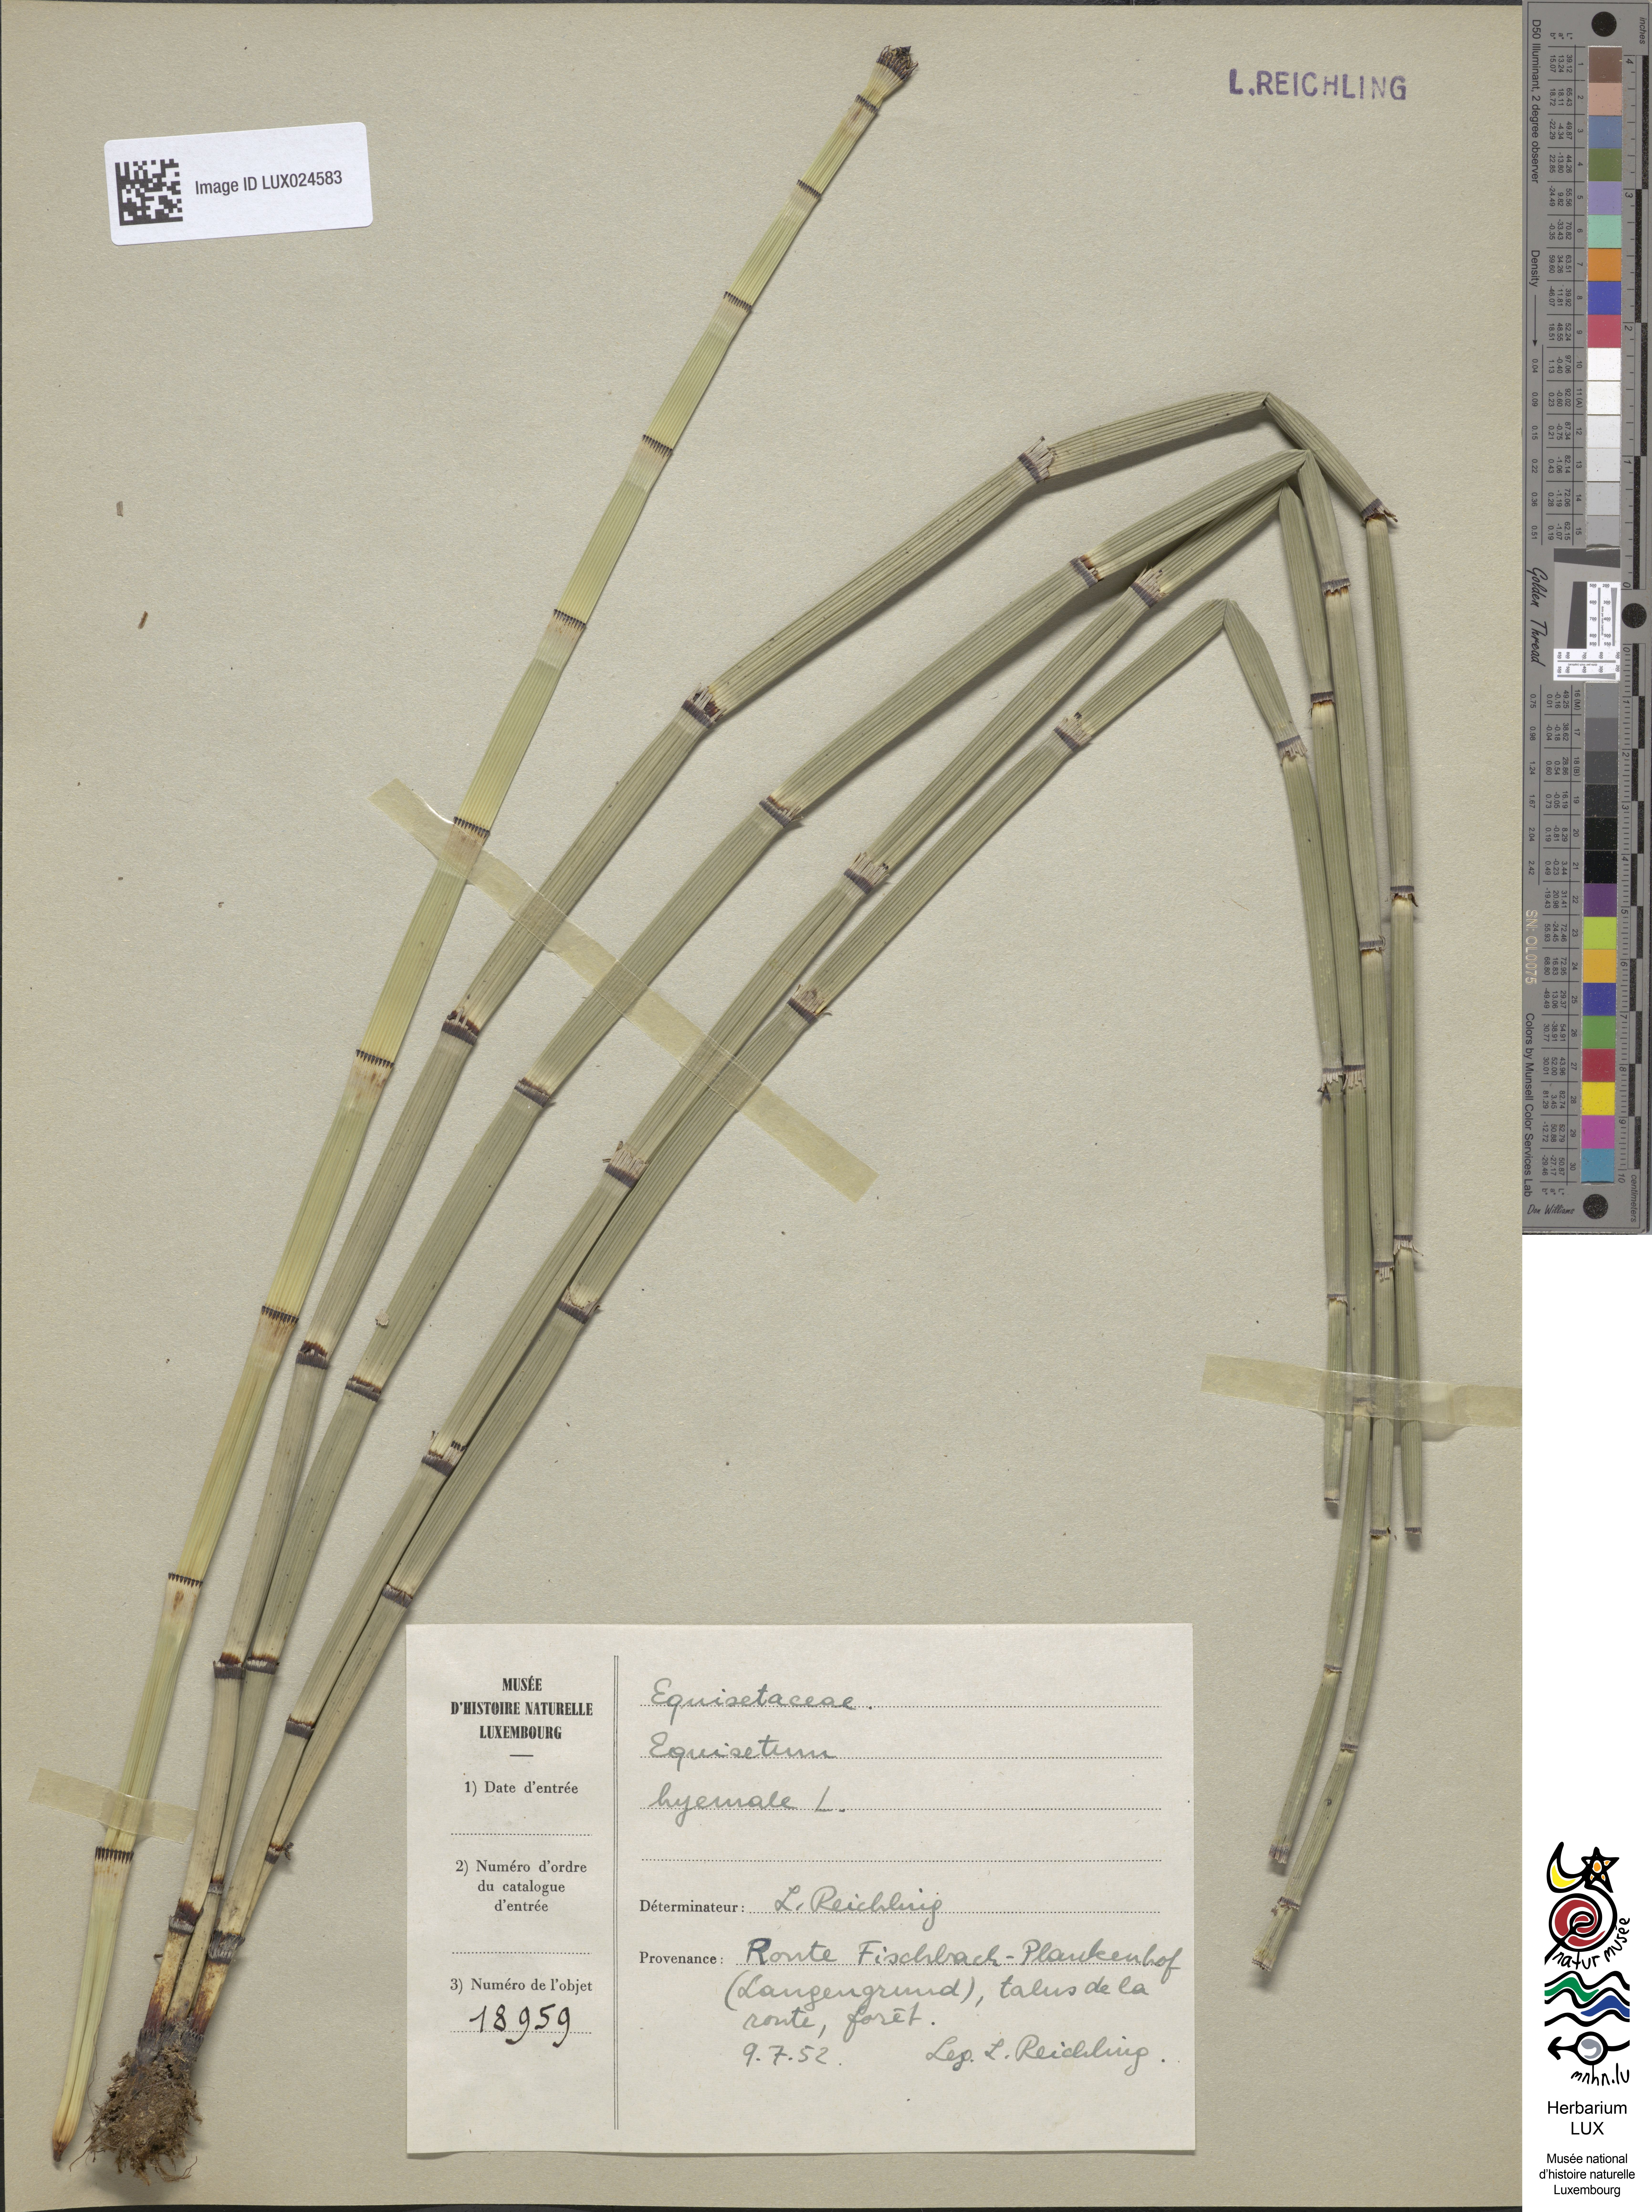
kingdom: Plantae
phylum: Tracheophyta
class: Polypodiopsida
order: Equisetales
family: Equisetaceae
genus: Equisetum
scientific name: Equisetum hyemale
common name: Rough horsetail
